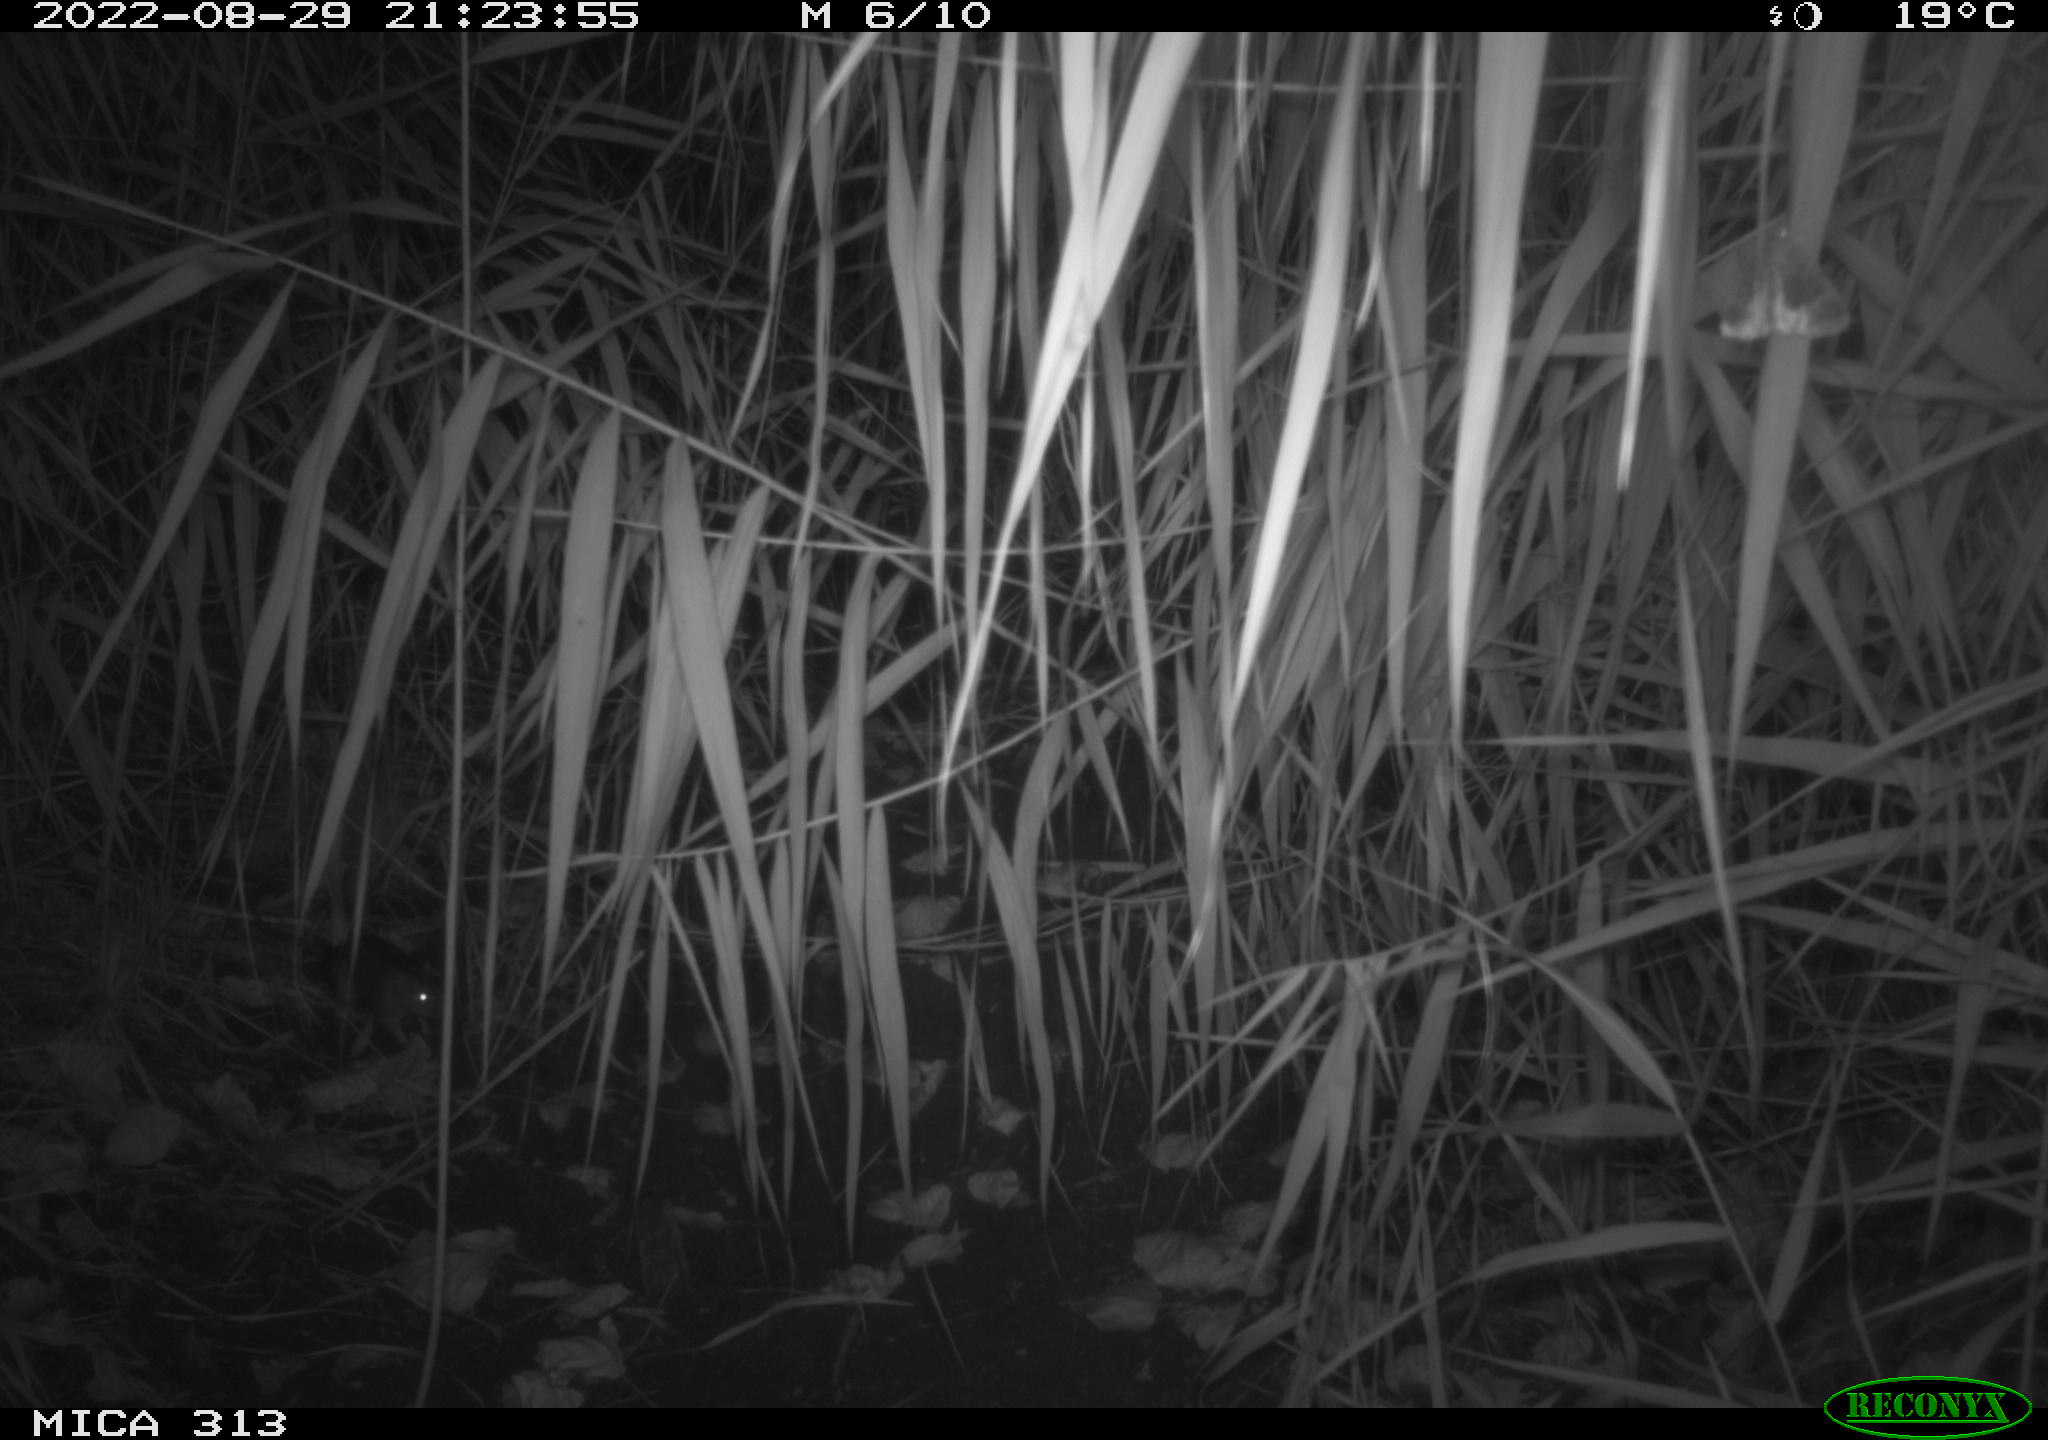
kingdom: Animalia
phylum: Chordata
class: Mammalia
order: Rodentia
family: Muridae
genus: Rattus
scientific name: Rattus norvegicus
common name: Brown rat
